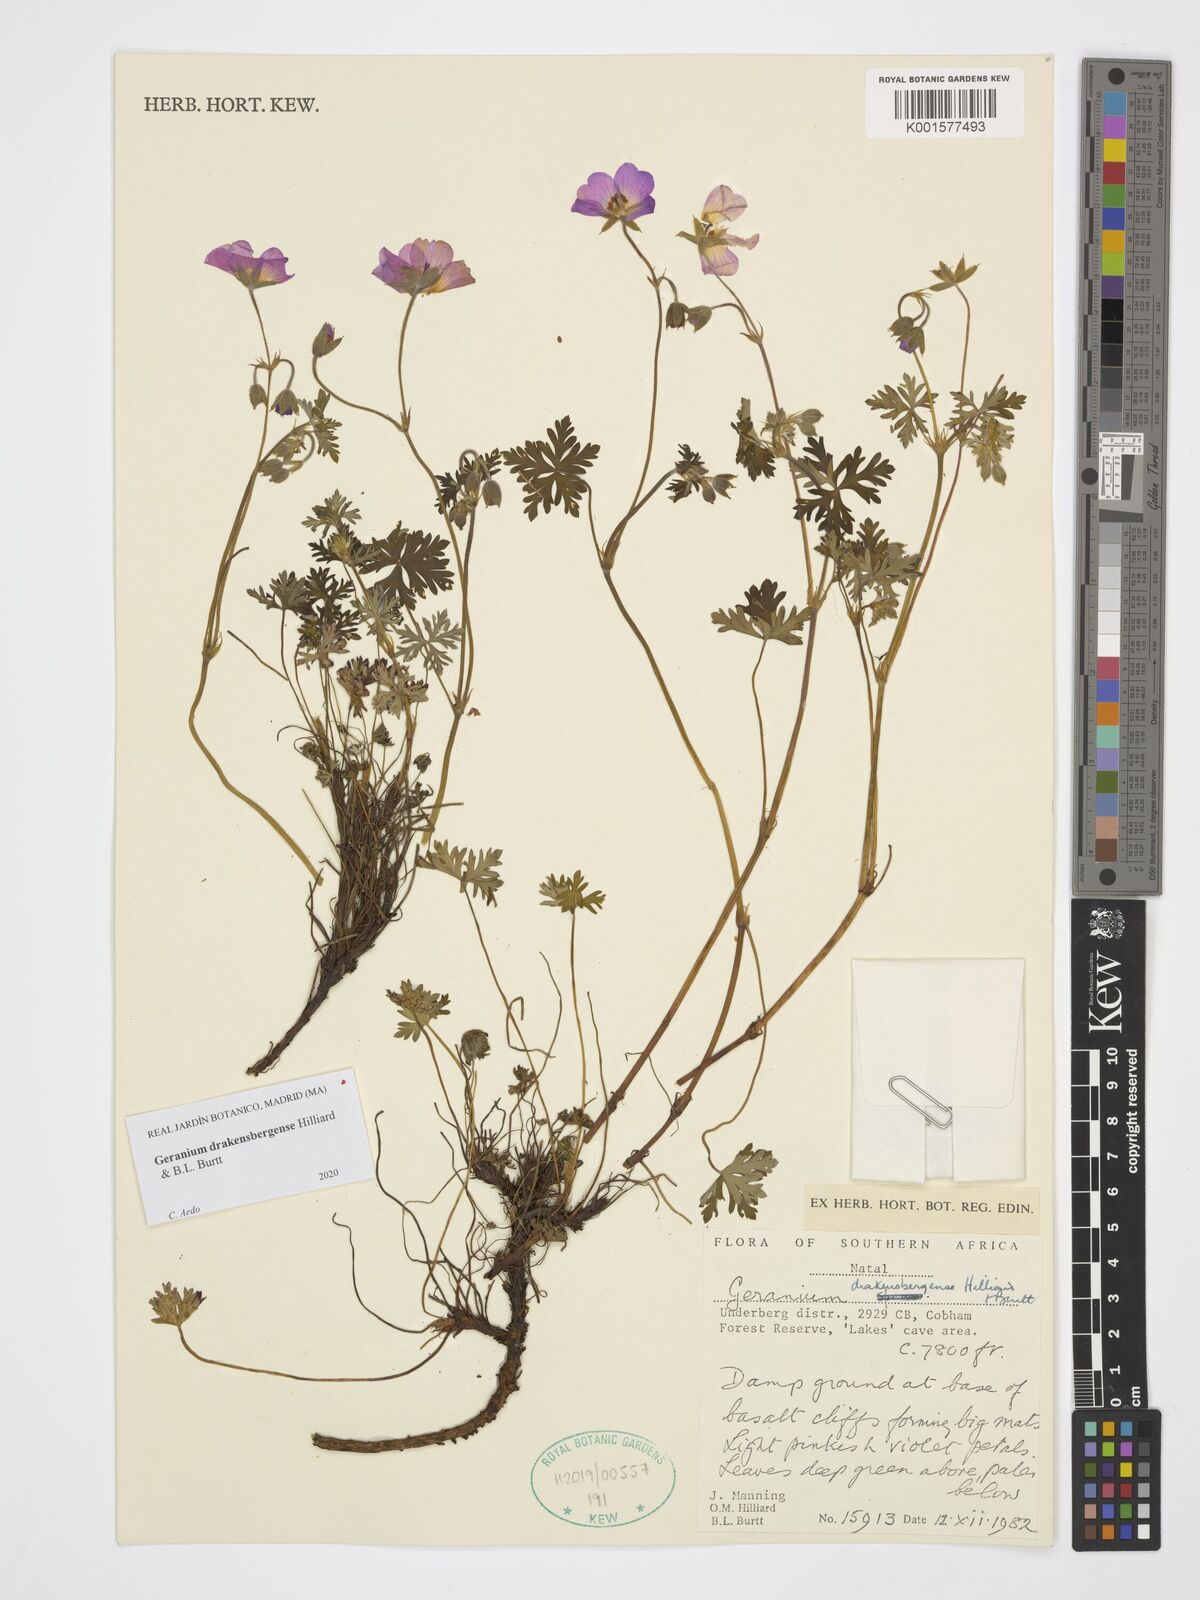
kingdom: Plantae
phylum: Tracheophyta
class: Magnoliopsida
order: Geraniales
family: Geraniaceae
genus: Geranium
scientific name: Geranium drakensbergense
